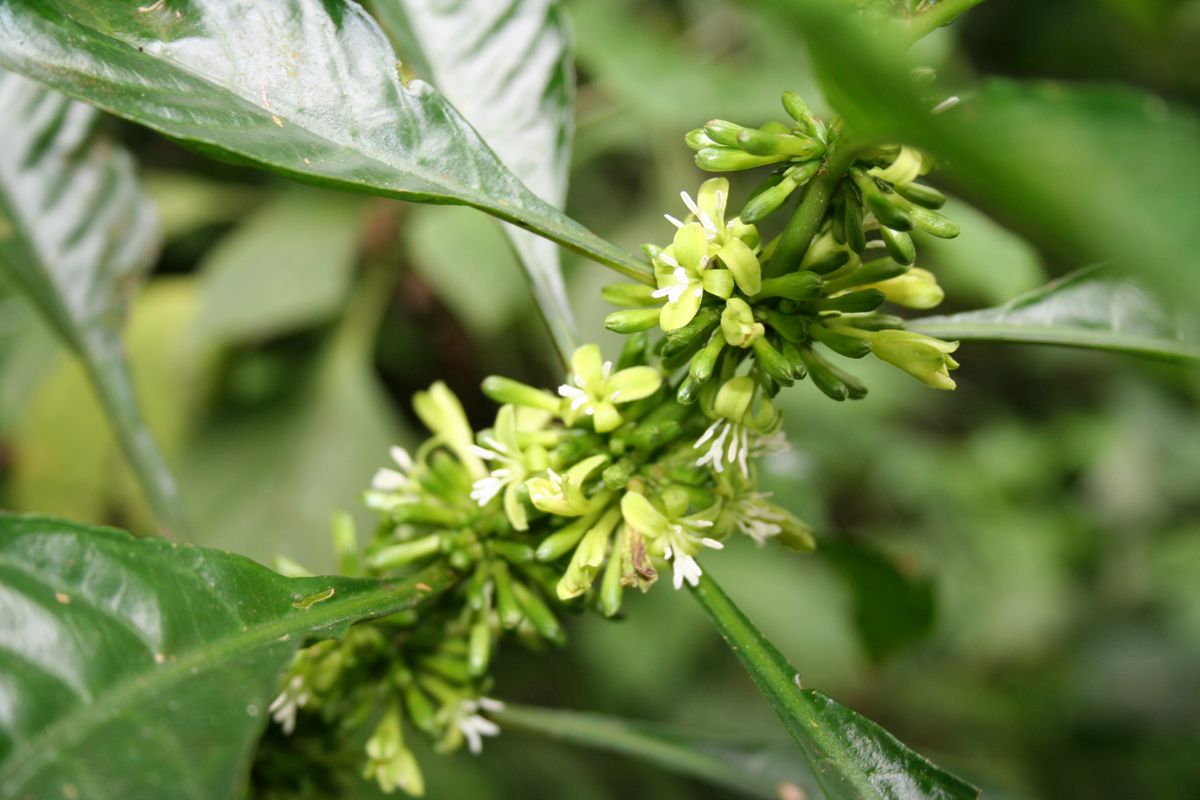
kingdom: Plantae
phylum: Tracheophyta
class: Magnoliopsida
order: Gentianales
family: Rubiaceae
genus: Hoffmannia
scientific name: Hoffmannia wilsonii
